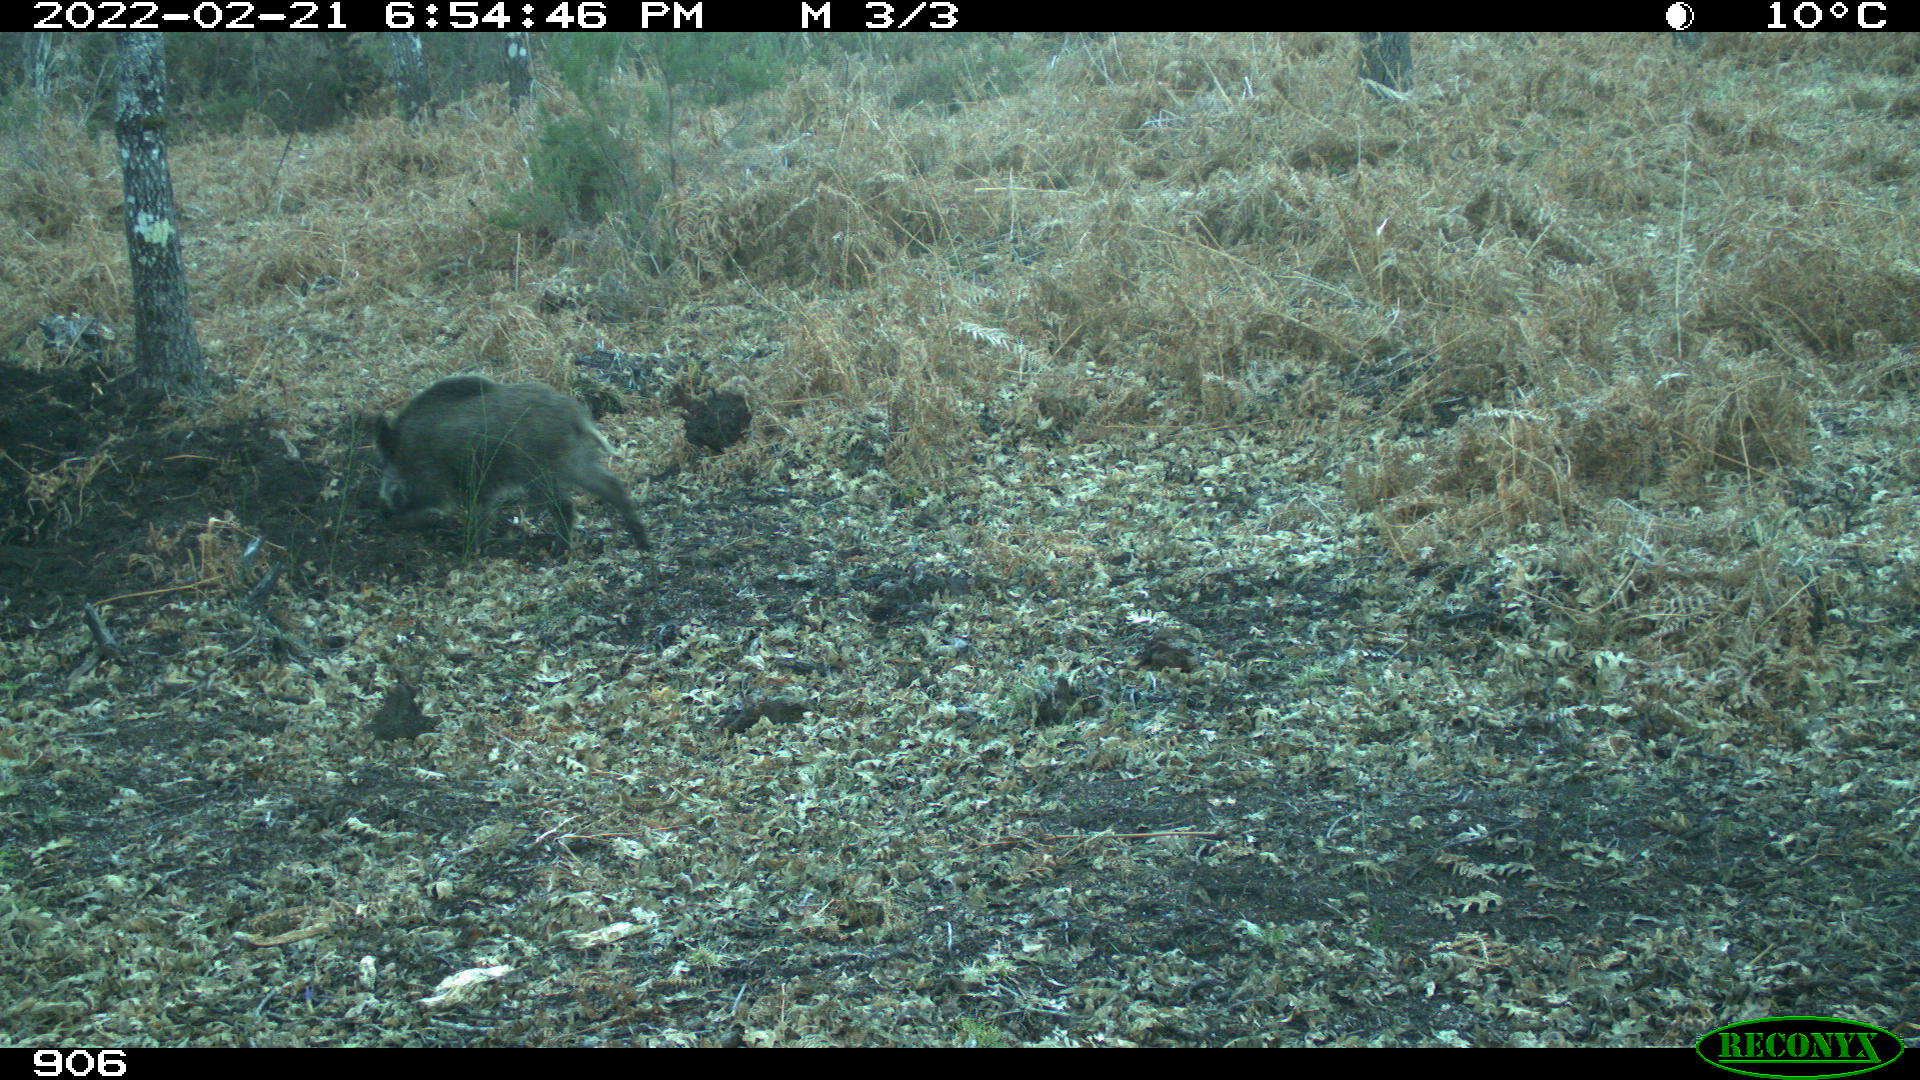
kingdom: Animalia
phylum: Chordata
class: Mammalia
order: Artiodactyla
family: Suidae
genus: Sus
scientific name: Sus scrofa
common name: Wild boar
